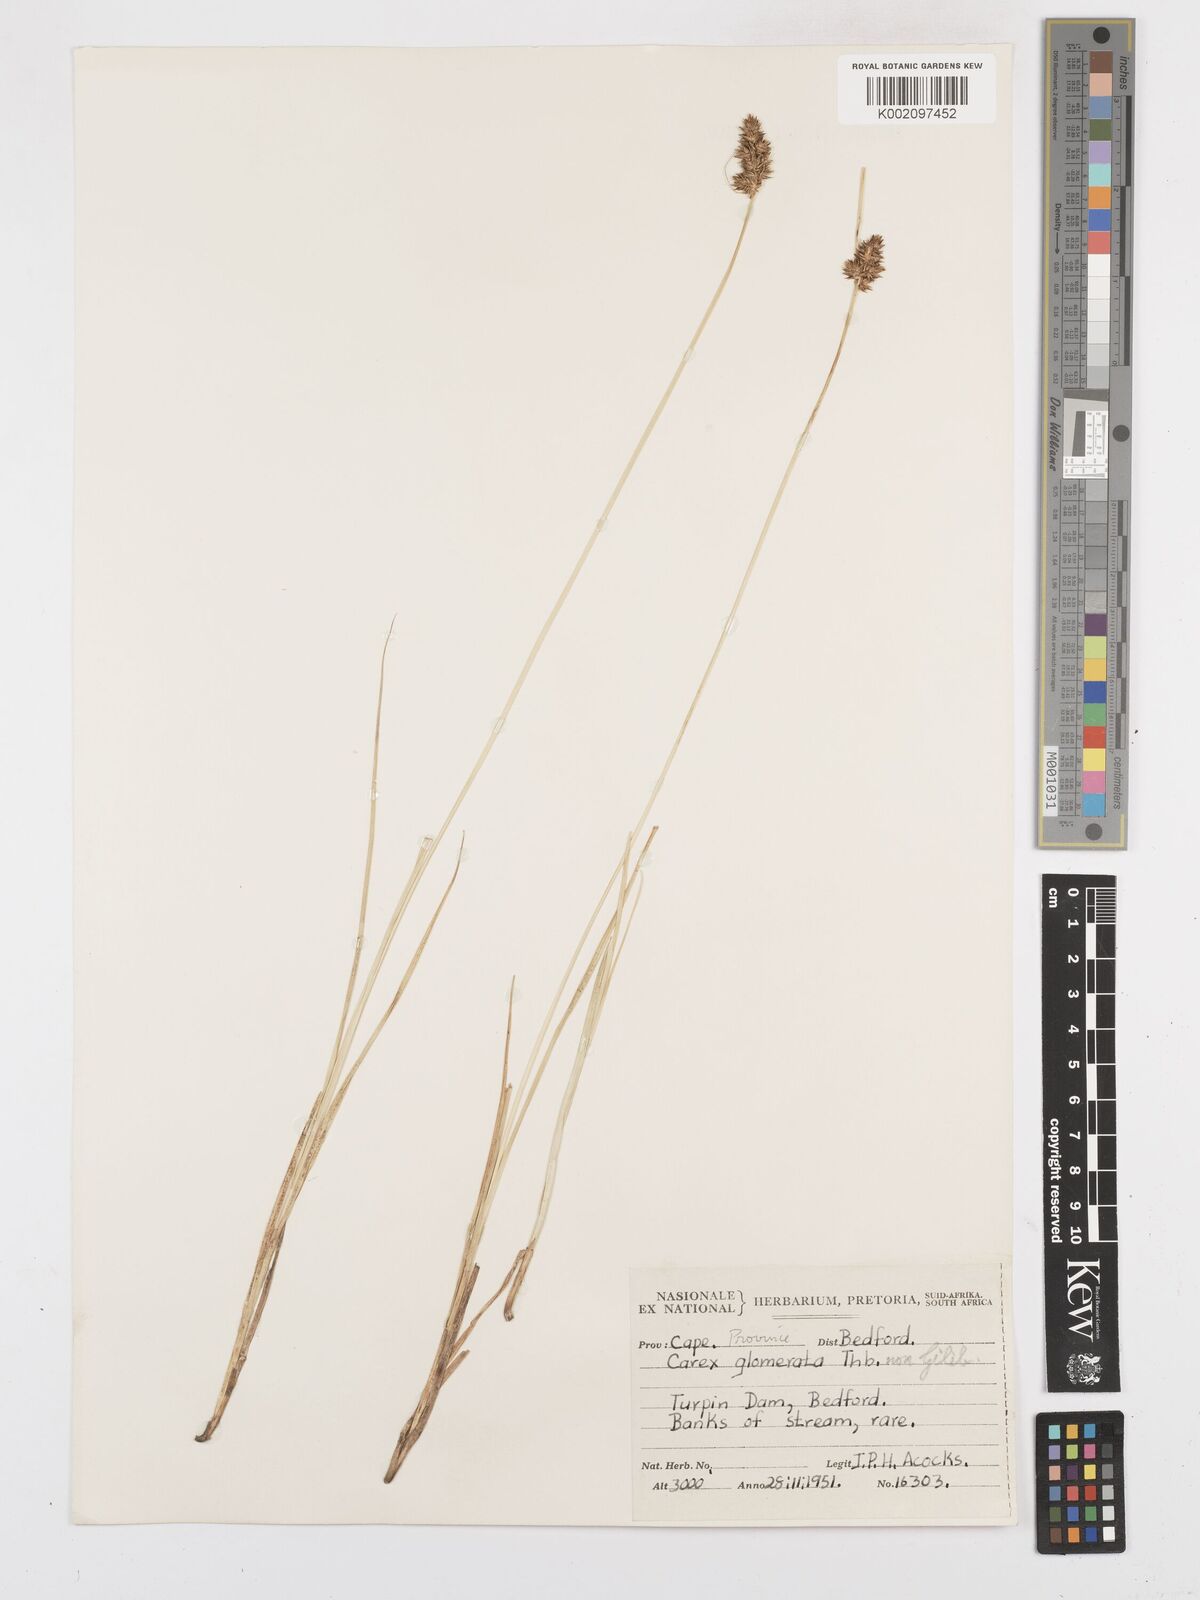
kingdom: Plantae
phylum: Tracheophyta
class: Liliopsida
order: Poales
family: Cyperaceae
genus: Carex
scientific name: Carex glomerata
